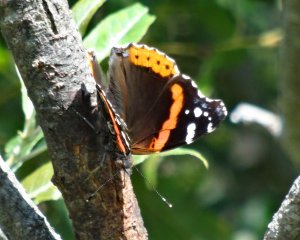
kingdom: Animalia
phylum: Arthropoda
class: Insecta
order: Lepidoptera
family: Nymphalidae
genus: Vanessa
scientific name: Vanessa atalanta
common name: Red Admiral
